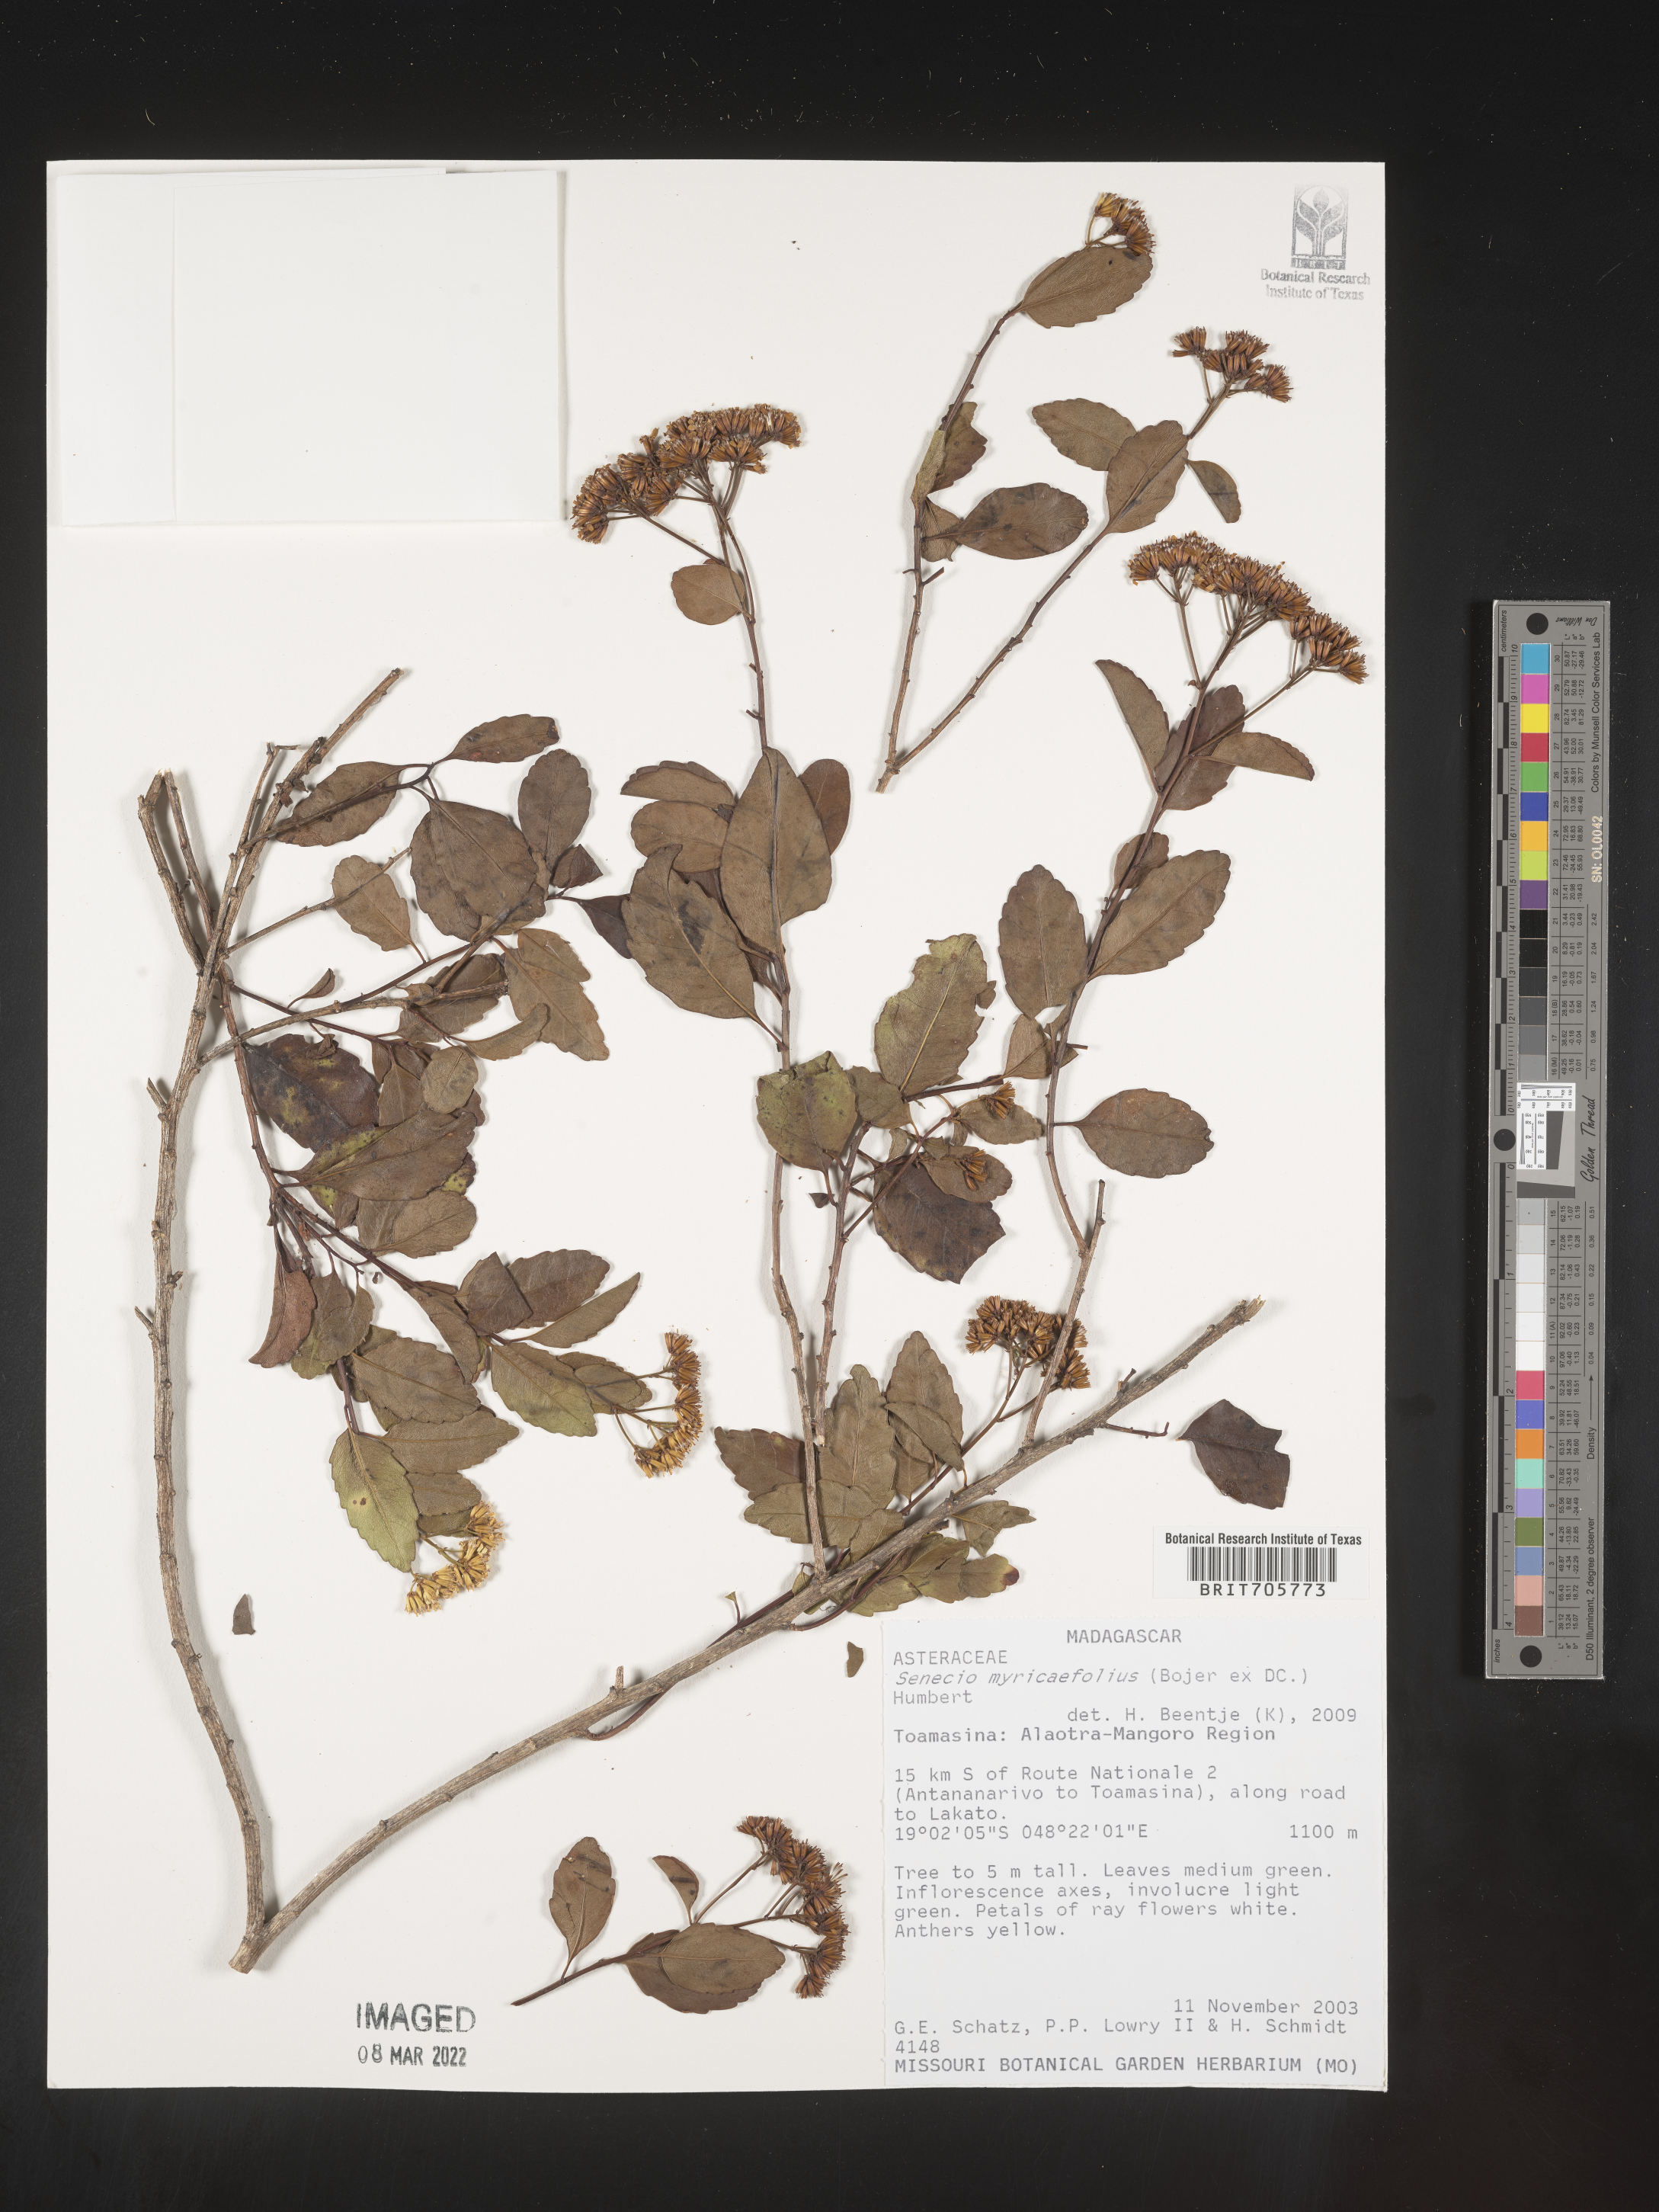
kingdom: Plantae
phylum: Tracheophyta
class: Magnoliopsida
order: Asterales
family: Asteraceae
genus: Senecio
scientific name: Senecio
